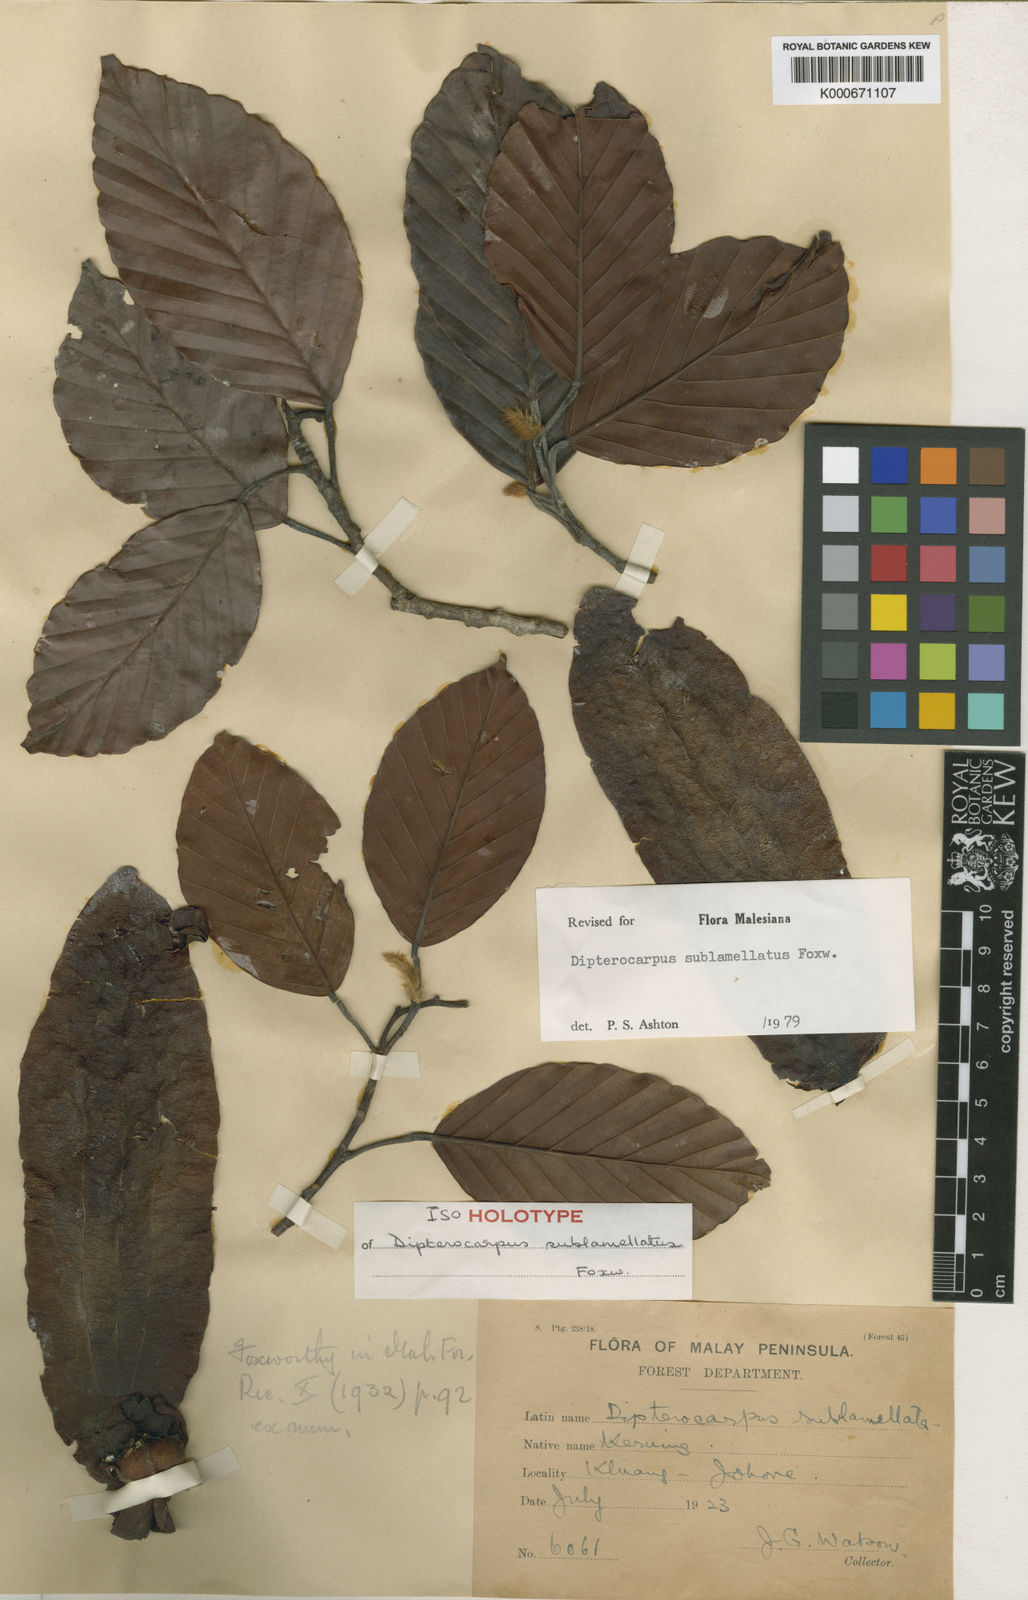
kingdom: Plantae
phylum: Tracheophyta
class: Magnoliopsida
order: Malvales
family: Dipterocarpaceae
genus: Dipterocarpus
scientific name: Dipterocarpus sublamellatus
